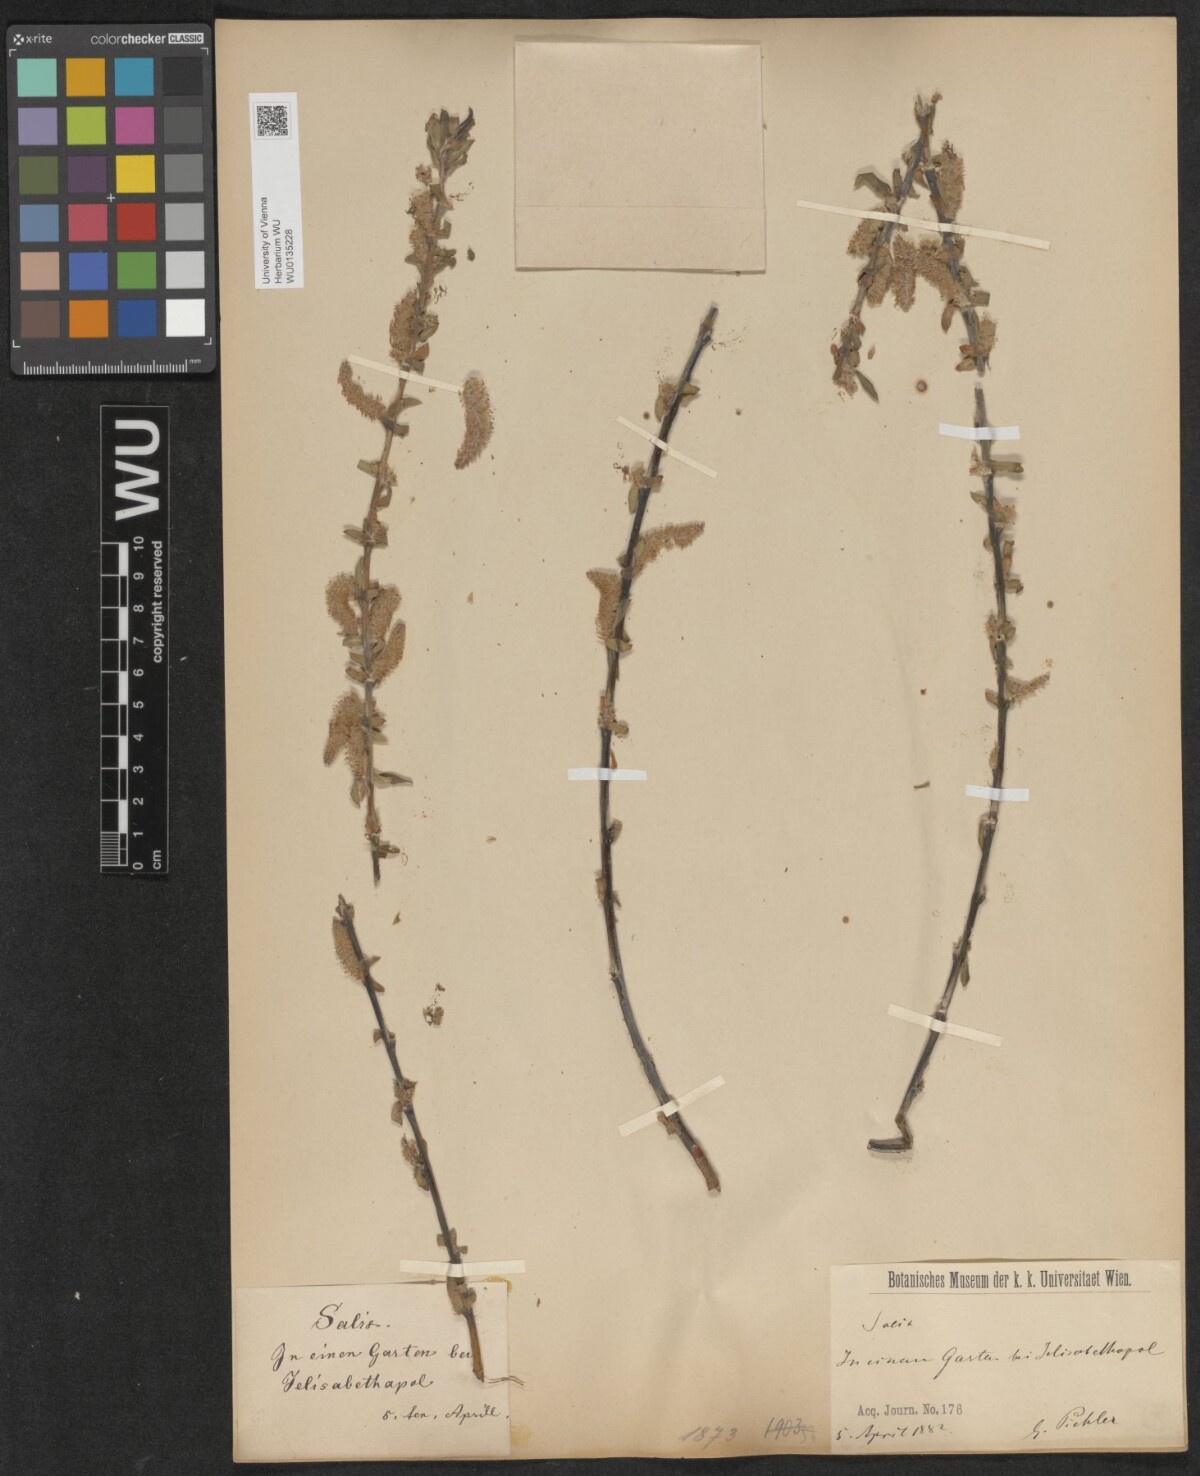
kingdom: Plantae
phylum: Tracheophyta
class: Magnoliopsida
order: Malpighiales
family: Salicaceae
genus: Salix
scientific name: Salix babylonica
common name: Weeping willow
